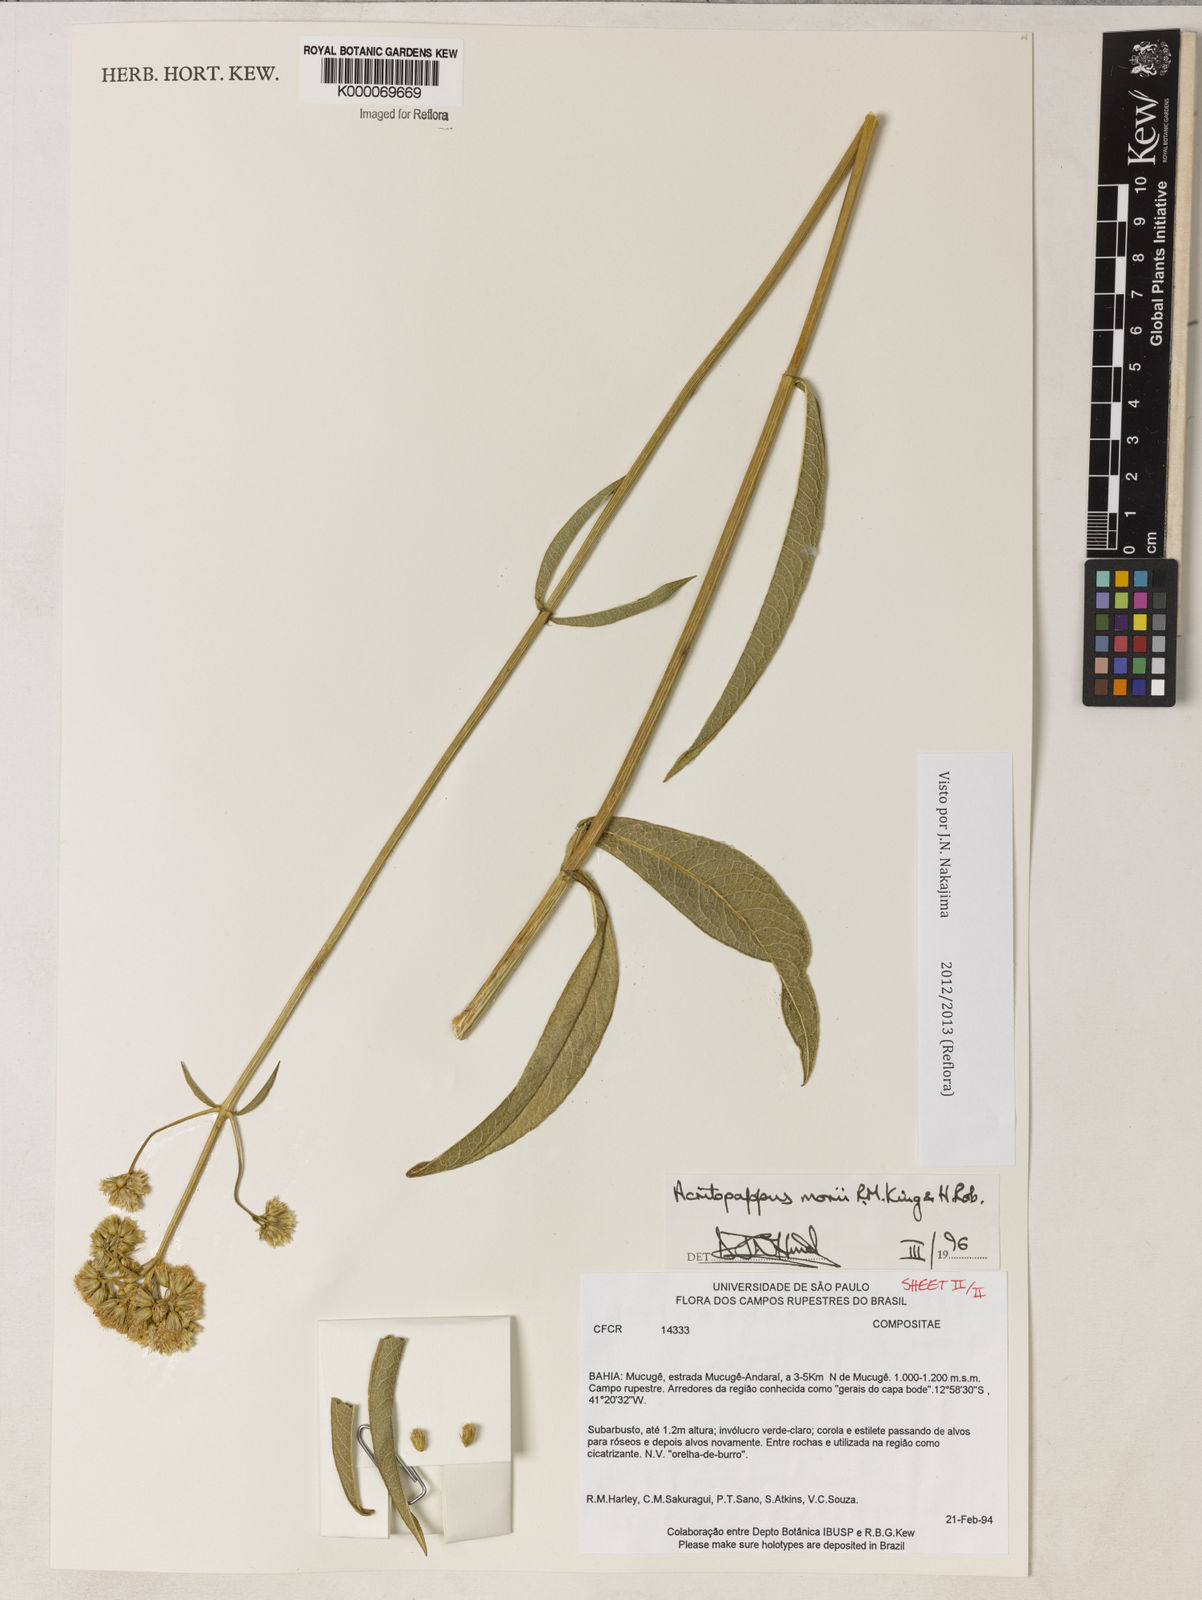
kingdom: Plantae
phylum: Tracheophyta
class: Magnoliopsida
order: Asterales
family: Asteraceae
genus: Acritopappus
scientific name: Acritopappus morii
